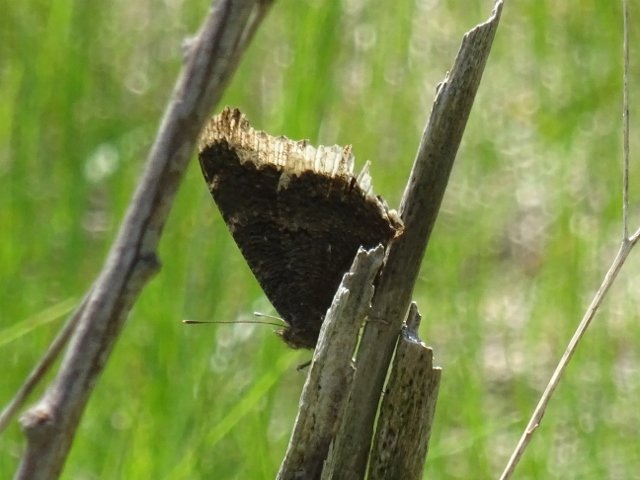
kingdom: Animalia
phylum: Arthropoda
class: Insecta
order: Lepidoptera
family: Nymphalidae
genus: Nymphalis
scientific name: Nymphalis antiopa
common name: Mourning Cloak
